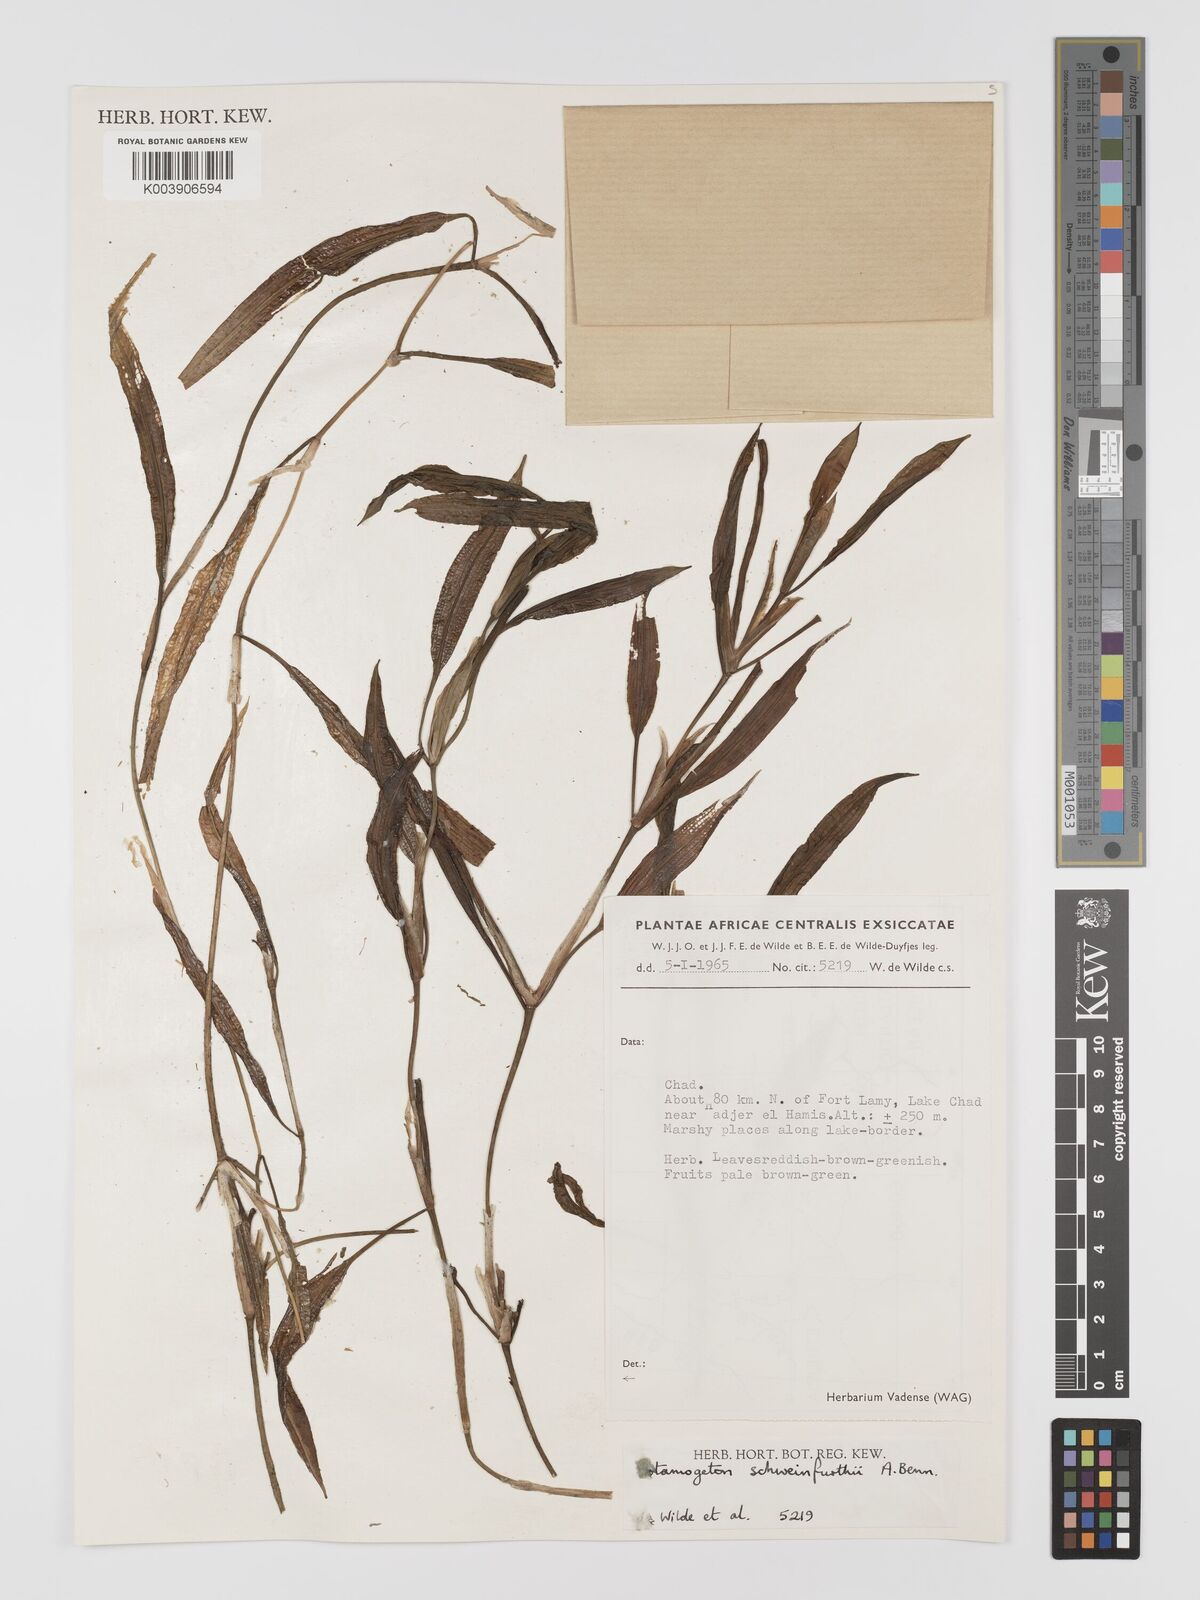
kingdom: Plantae
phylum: Tracheophyta
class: Liliopsida
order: Alismatales
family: Potamogetonaceae
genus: Potamogeton
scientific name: Potamogeton schweinfurthii
